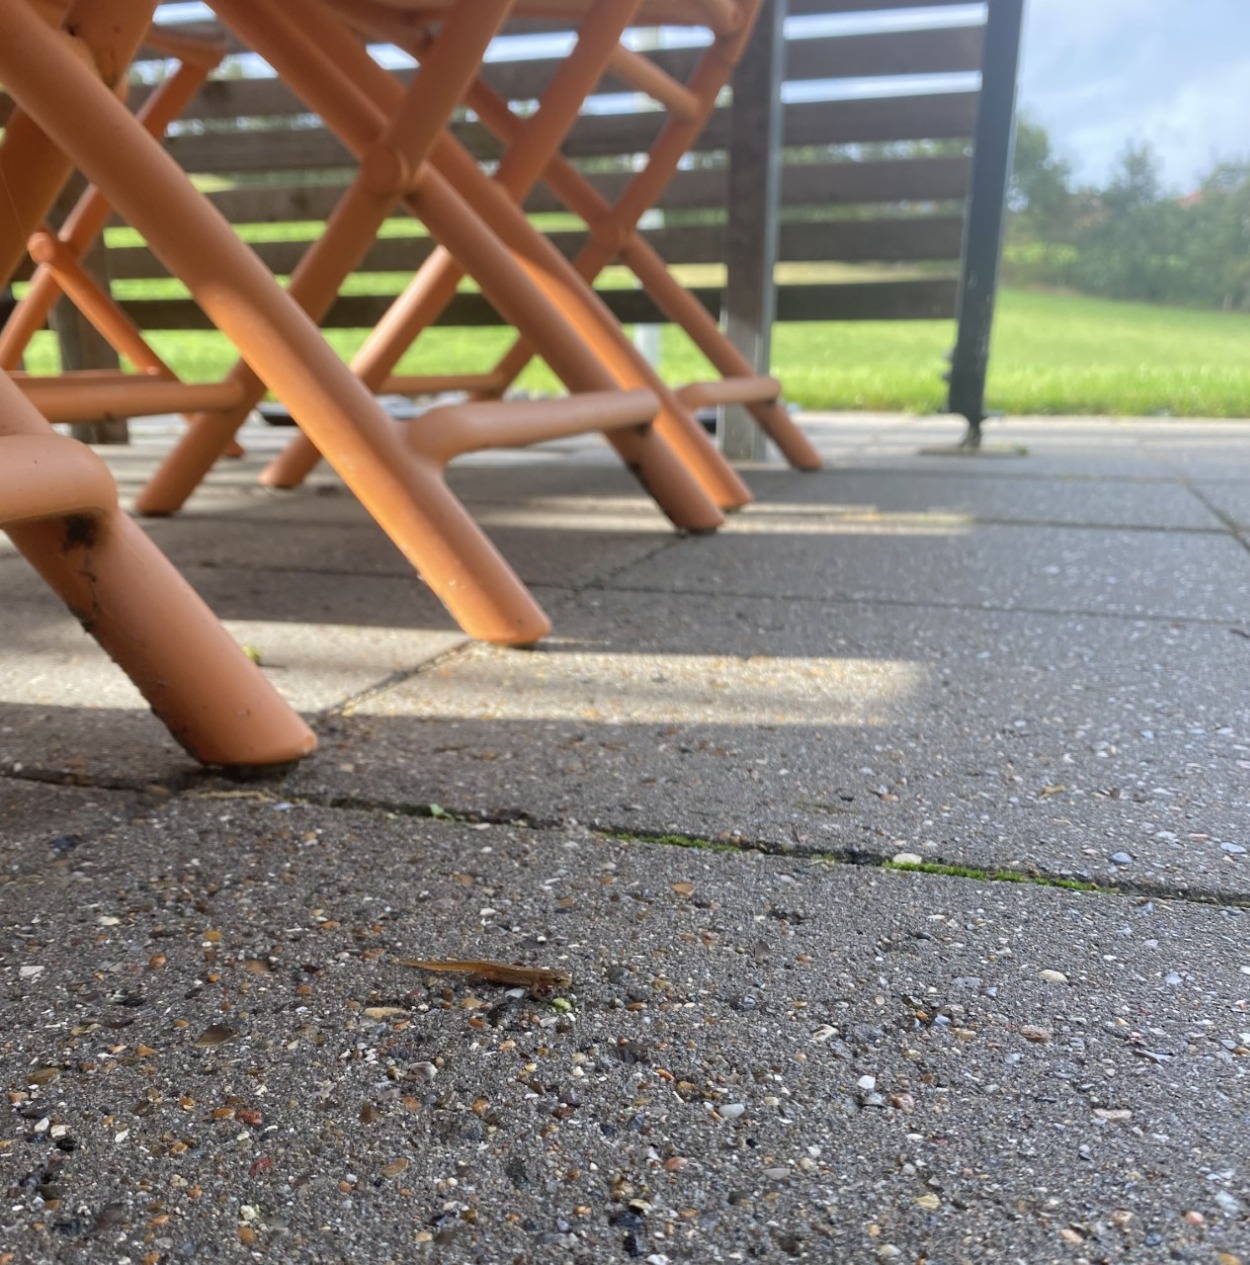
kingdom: Animalia
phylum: Chordata
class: Amphibia
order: Caudata
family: Salamandridae
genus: Lissotriton
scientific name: Lissotriton vulgaris
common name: Lille vandsalamander
